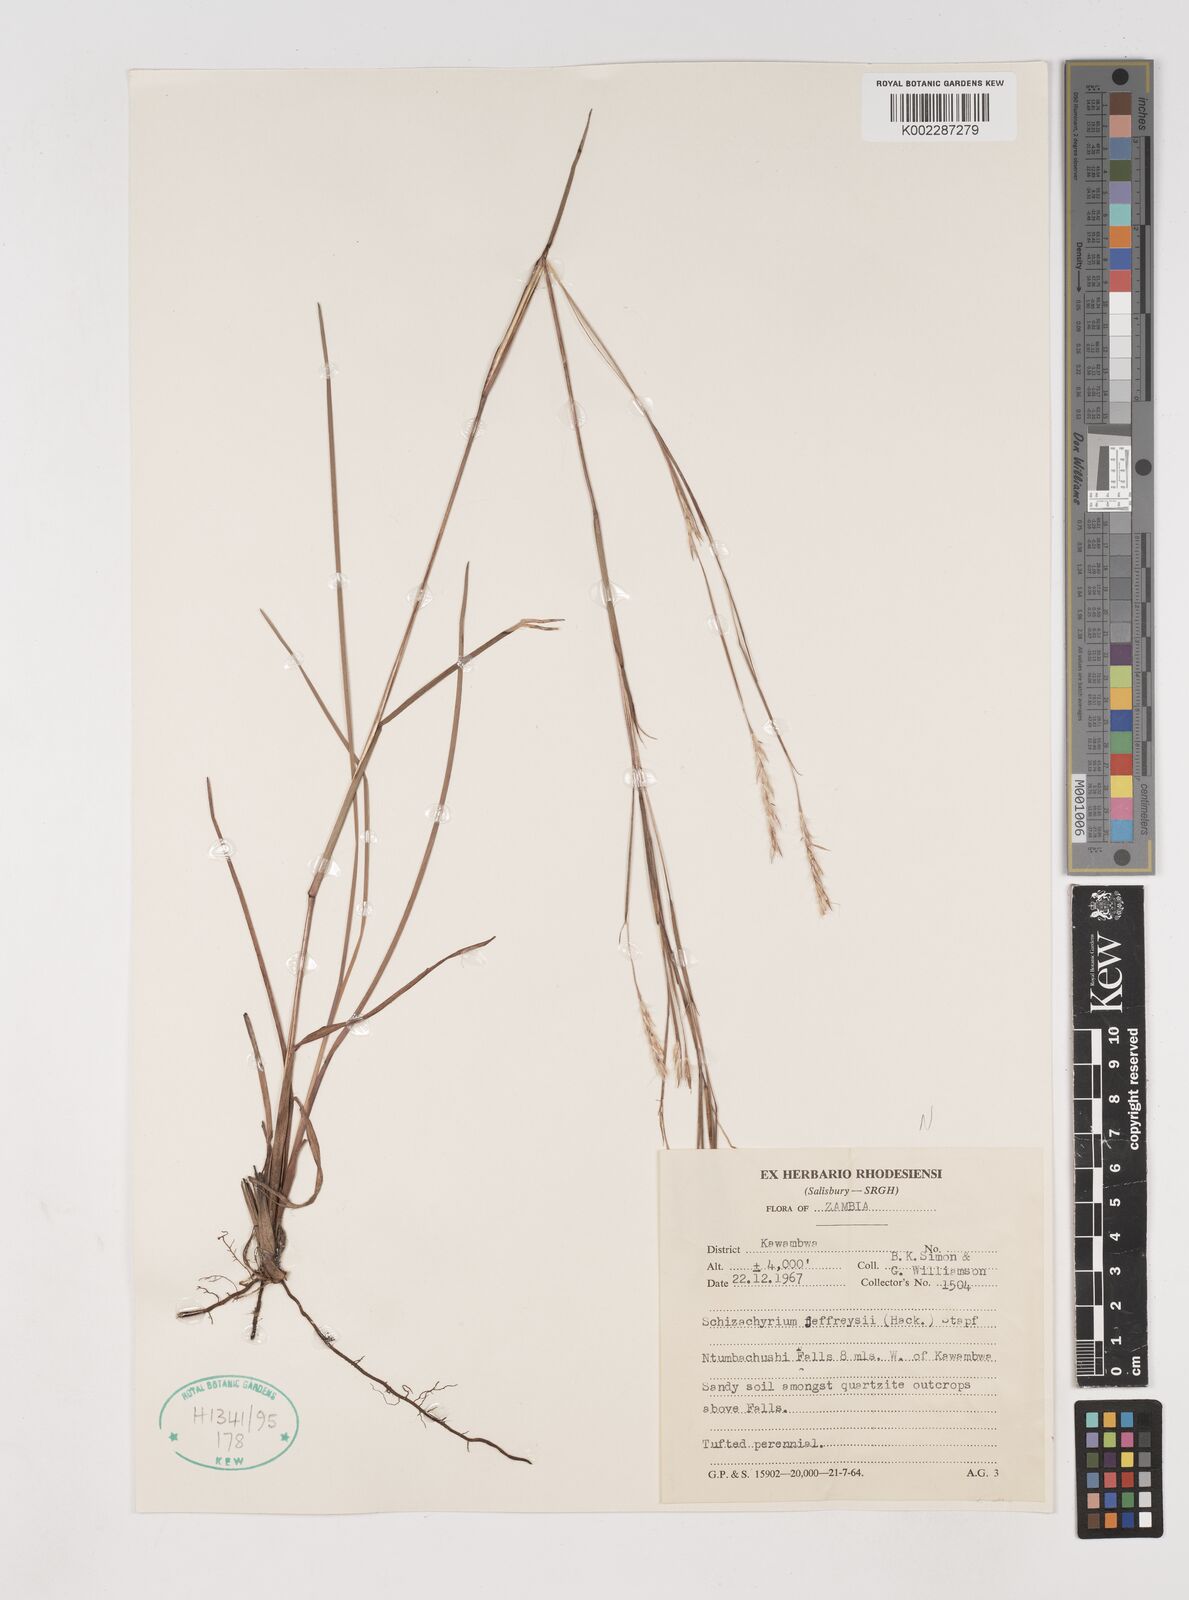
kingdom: Plantae
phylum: Tracheophyta
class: Liliopsida
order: Poales
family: Poaceae
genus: Schizachyrium
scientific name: Schizachyrium jeffreysii
